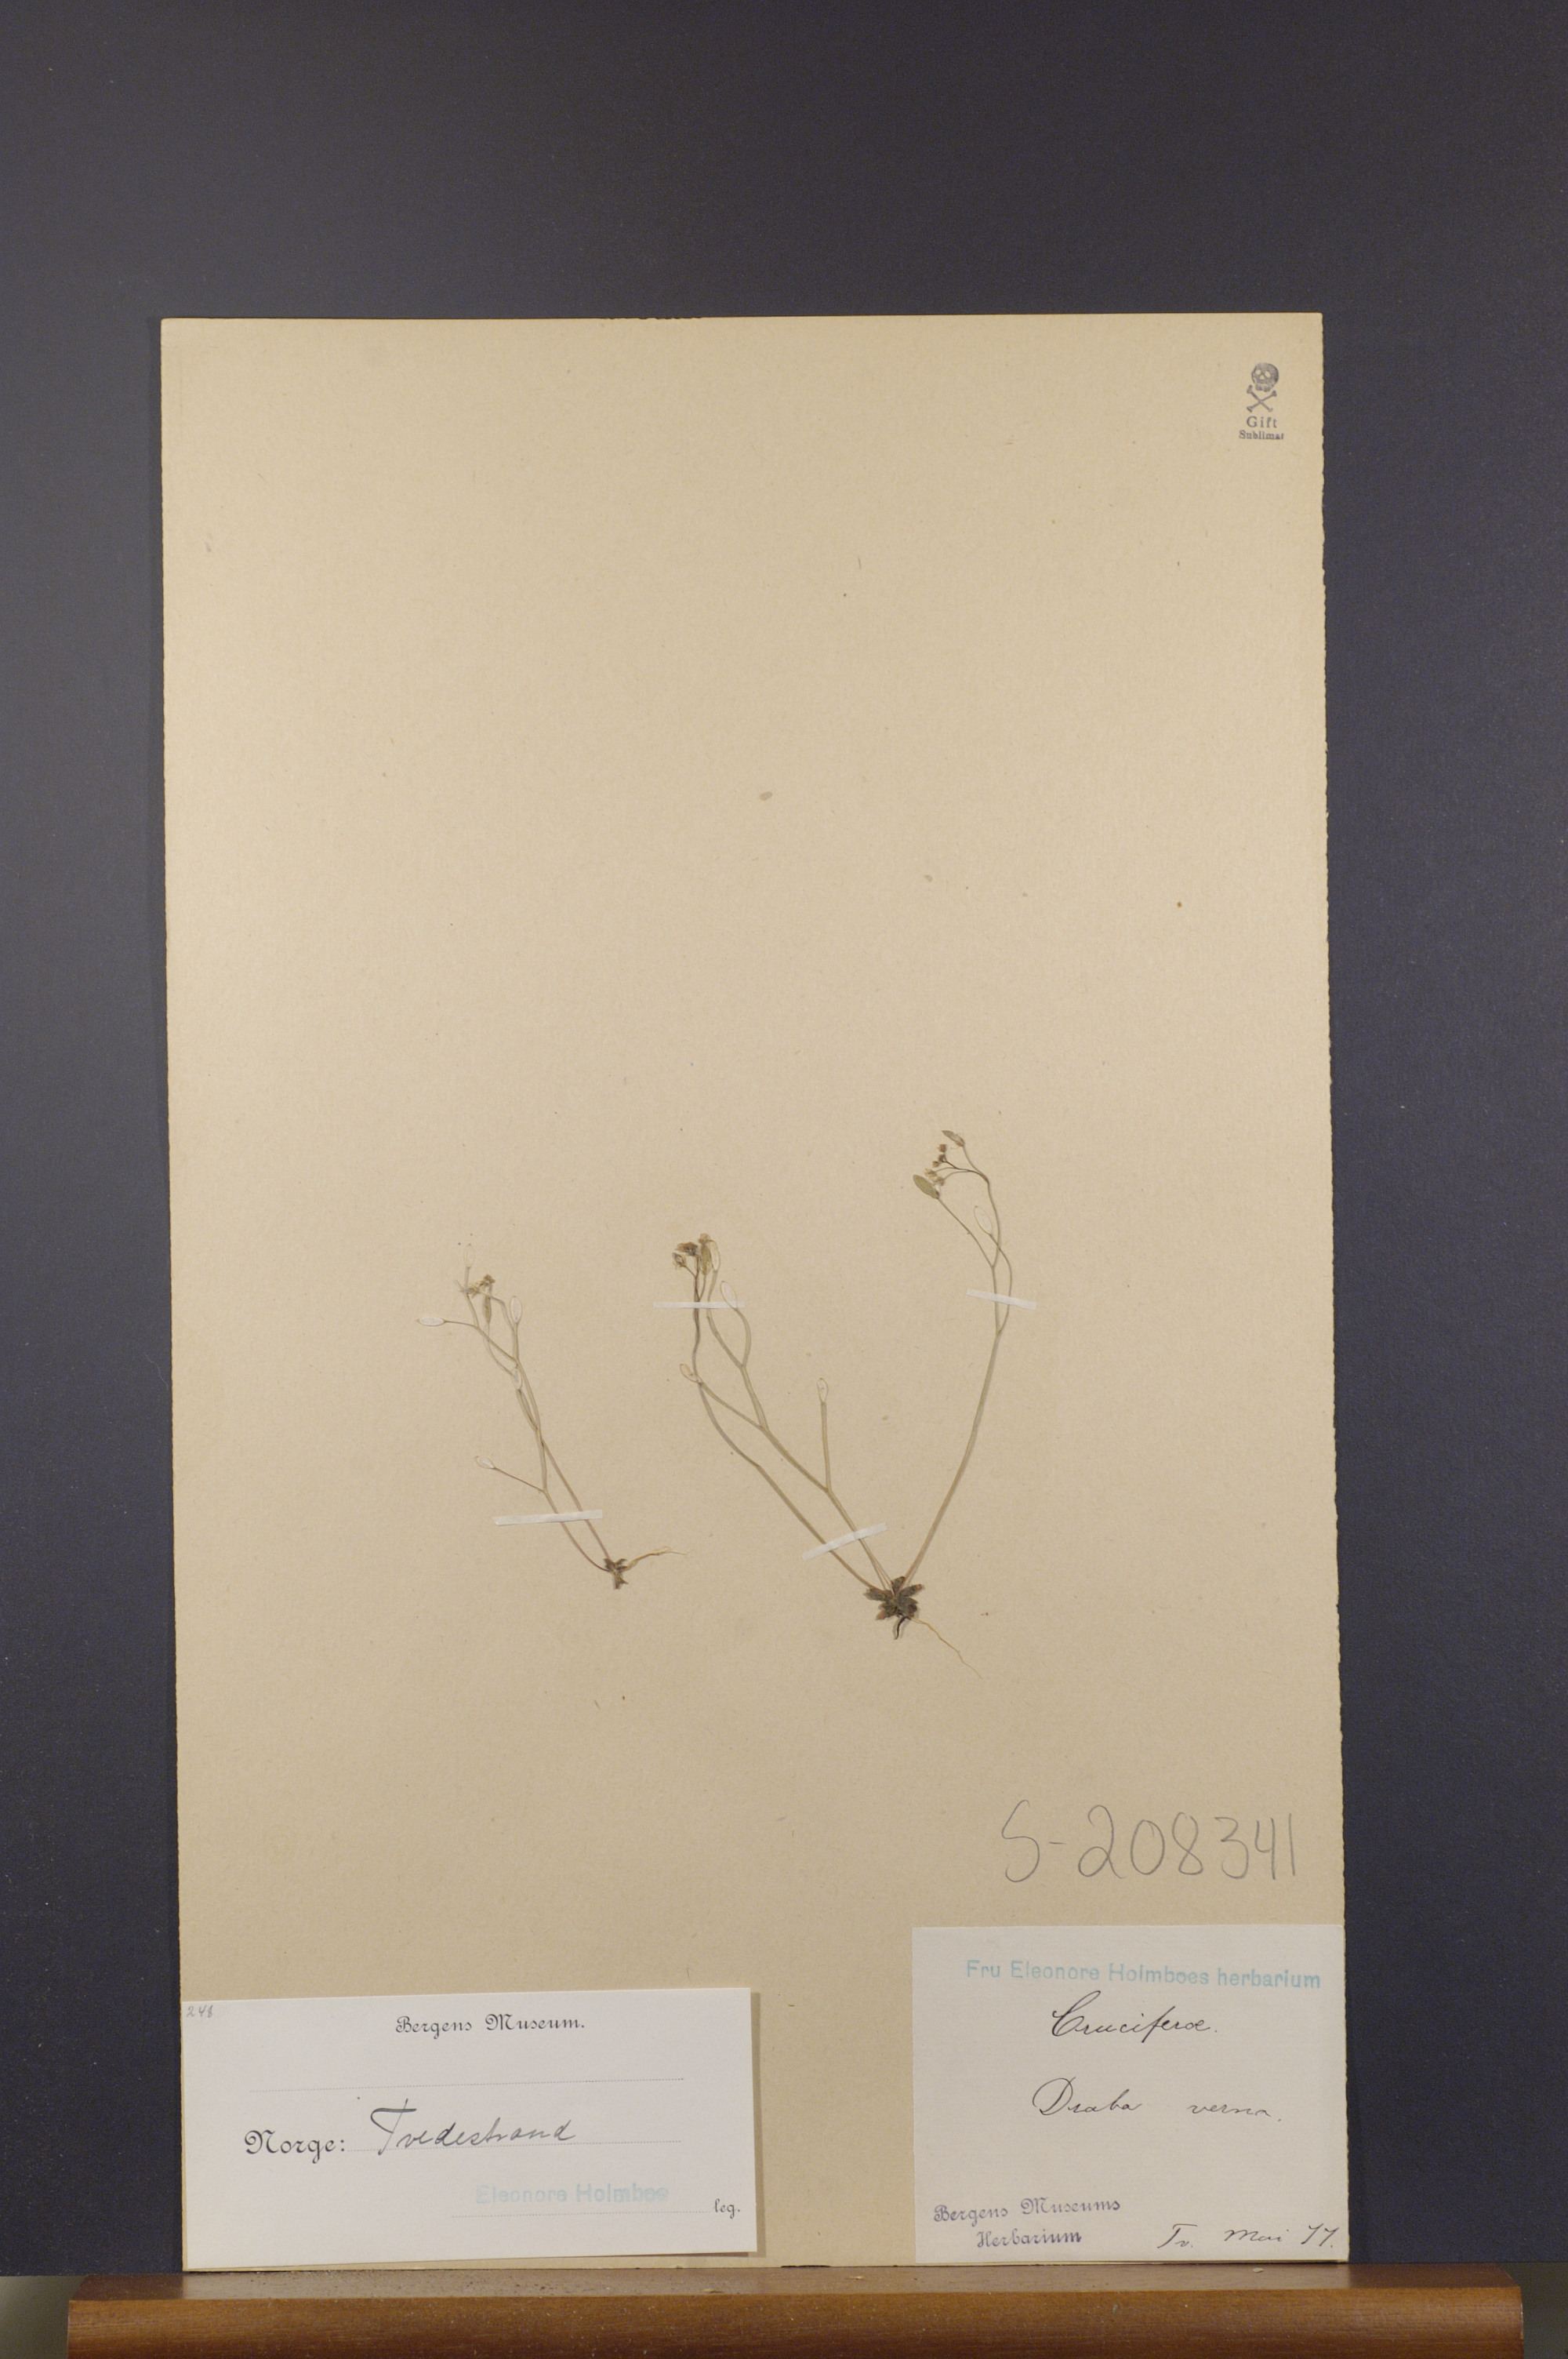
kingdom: Plantae
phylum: Tracheophyta
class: Magnoliopsida
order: Brassicales
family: Brassicaceae
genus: Draba
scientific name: Draba verna
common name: Spring draba
